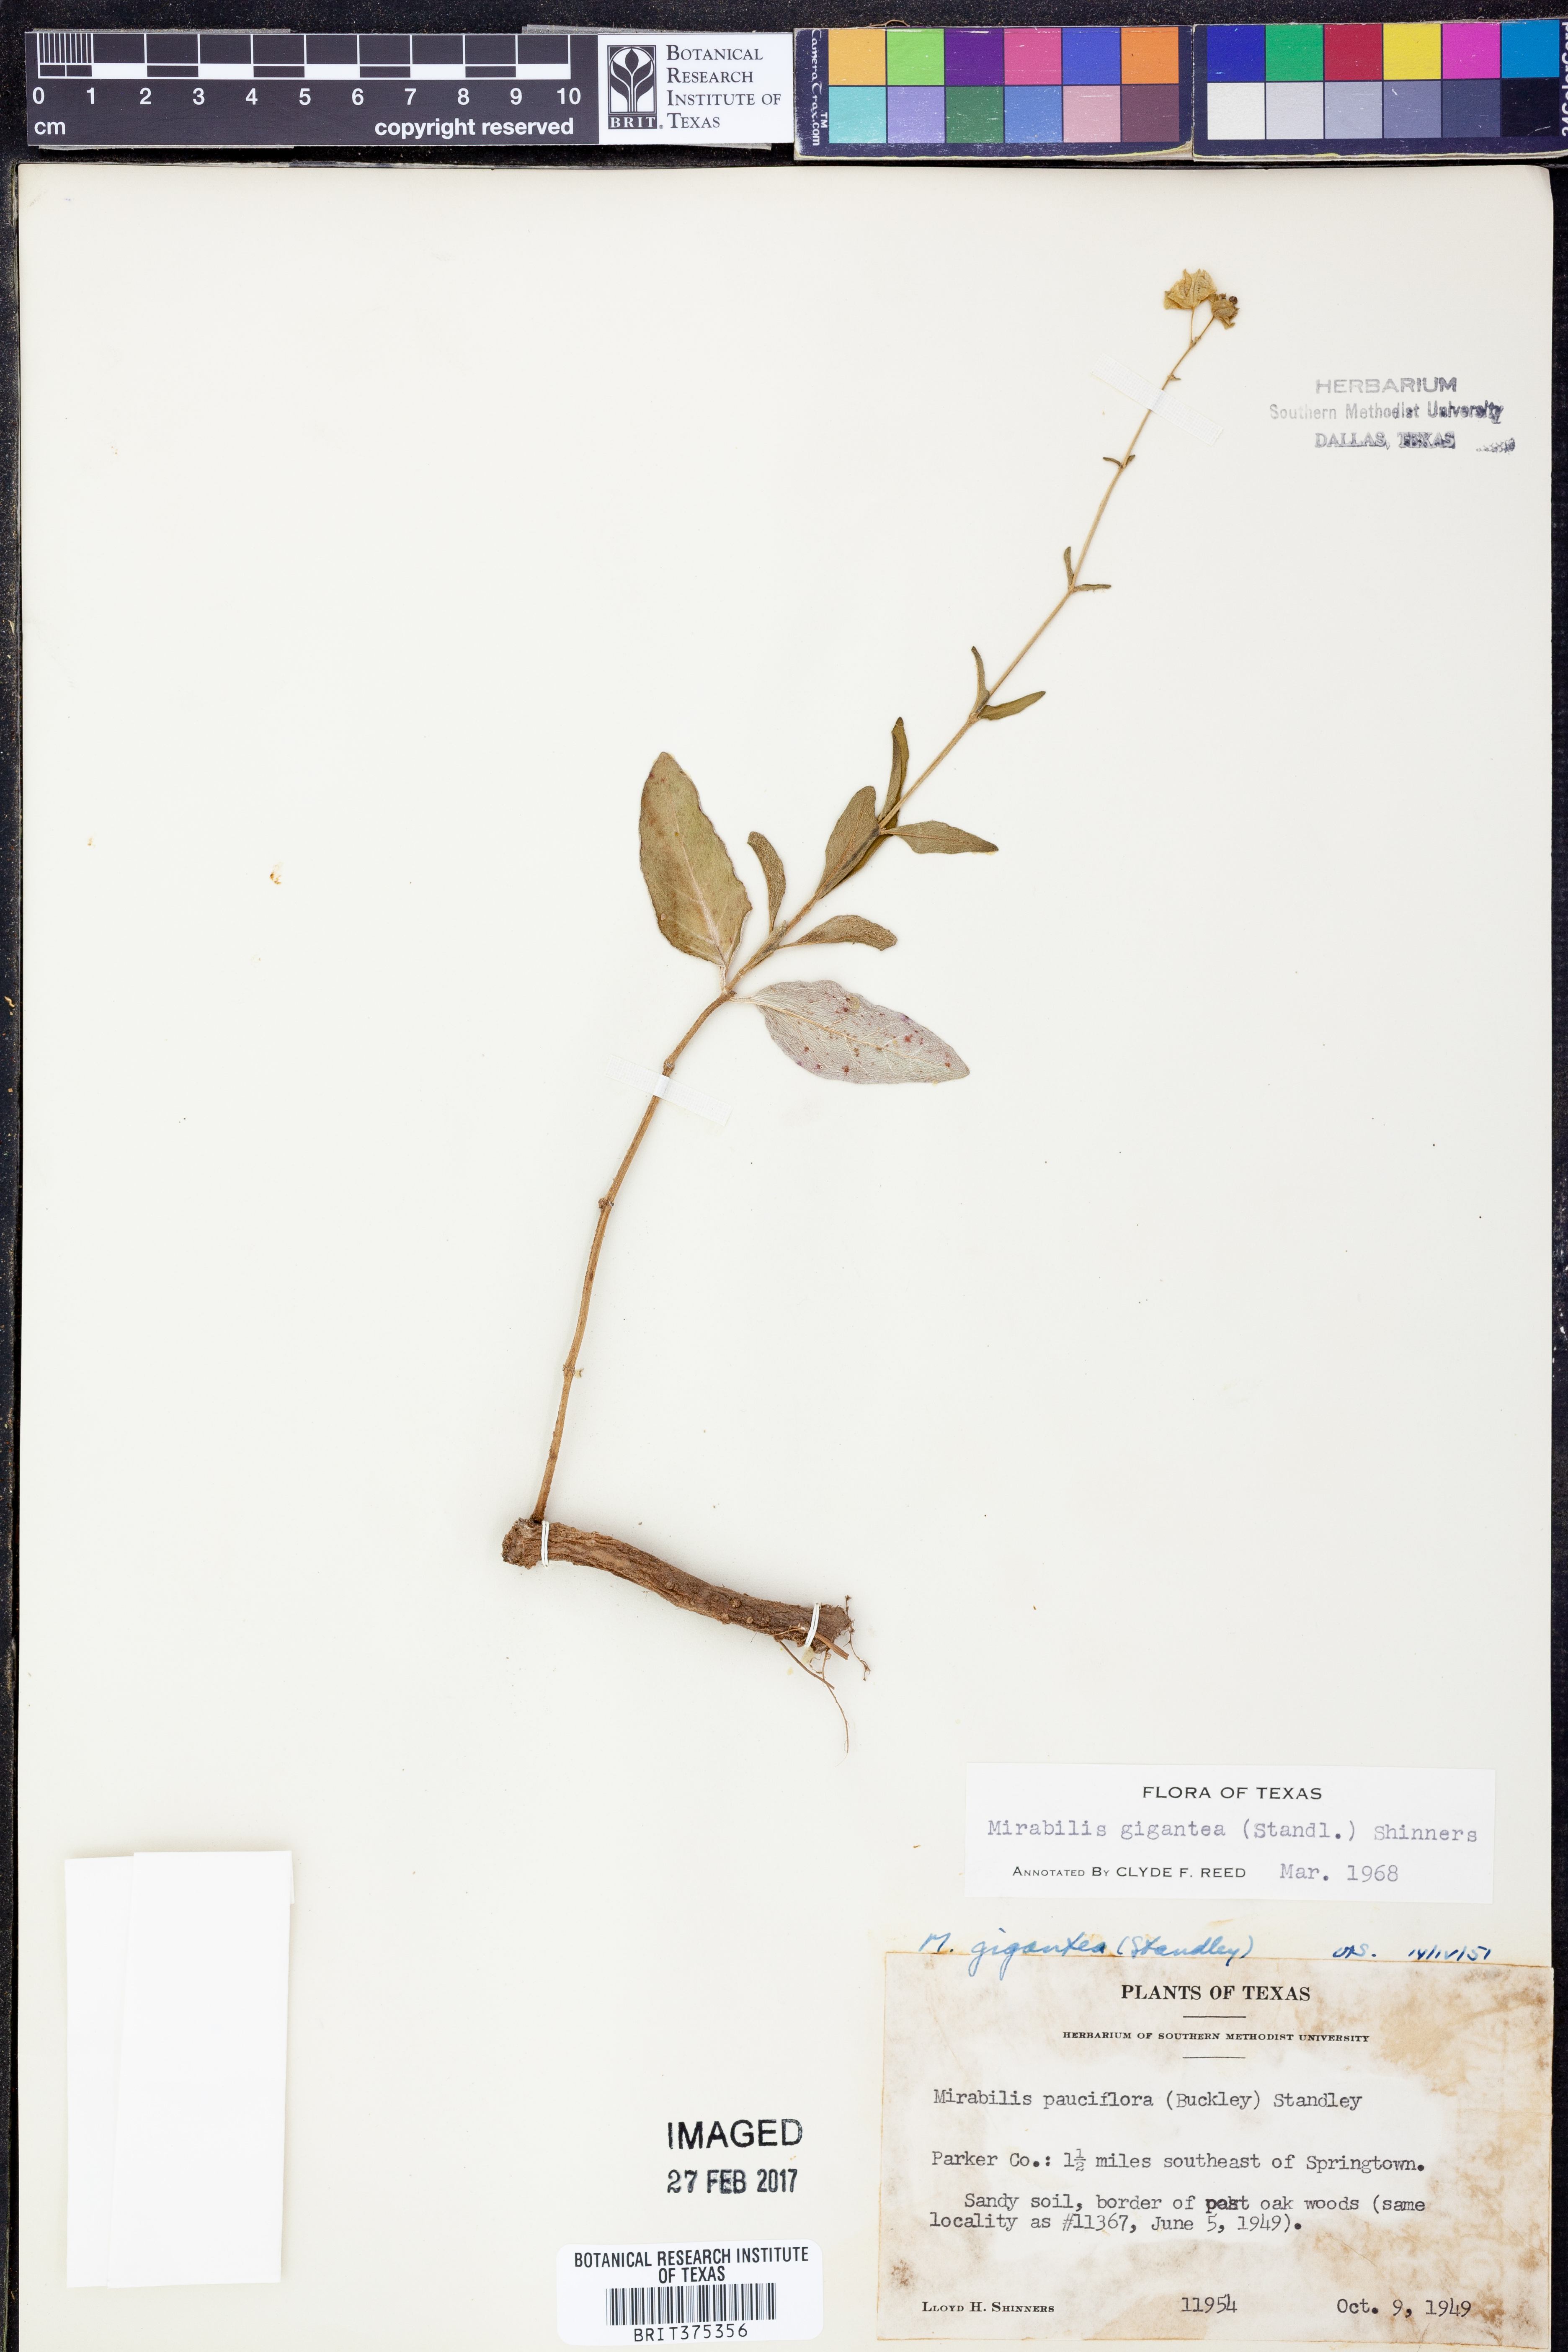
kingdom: Plantae
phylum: Tracheophyta
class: Magnoliopsida
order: Caryophyllales
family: Nyctaginaceae
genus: Mirabilis
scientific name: Mirabilis gigantea
